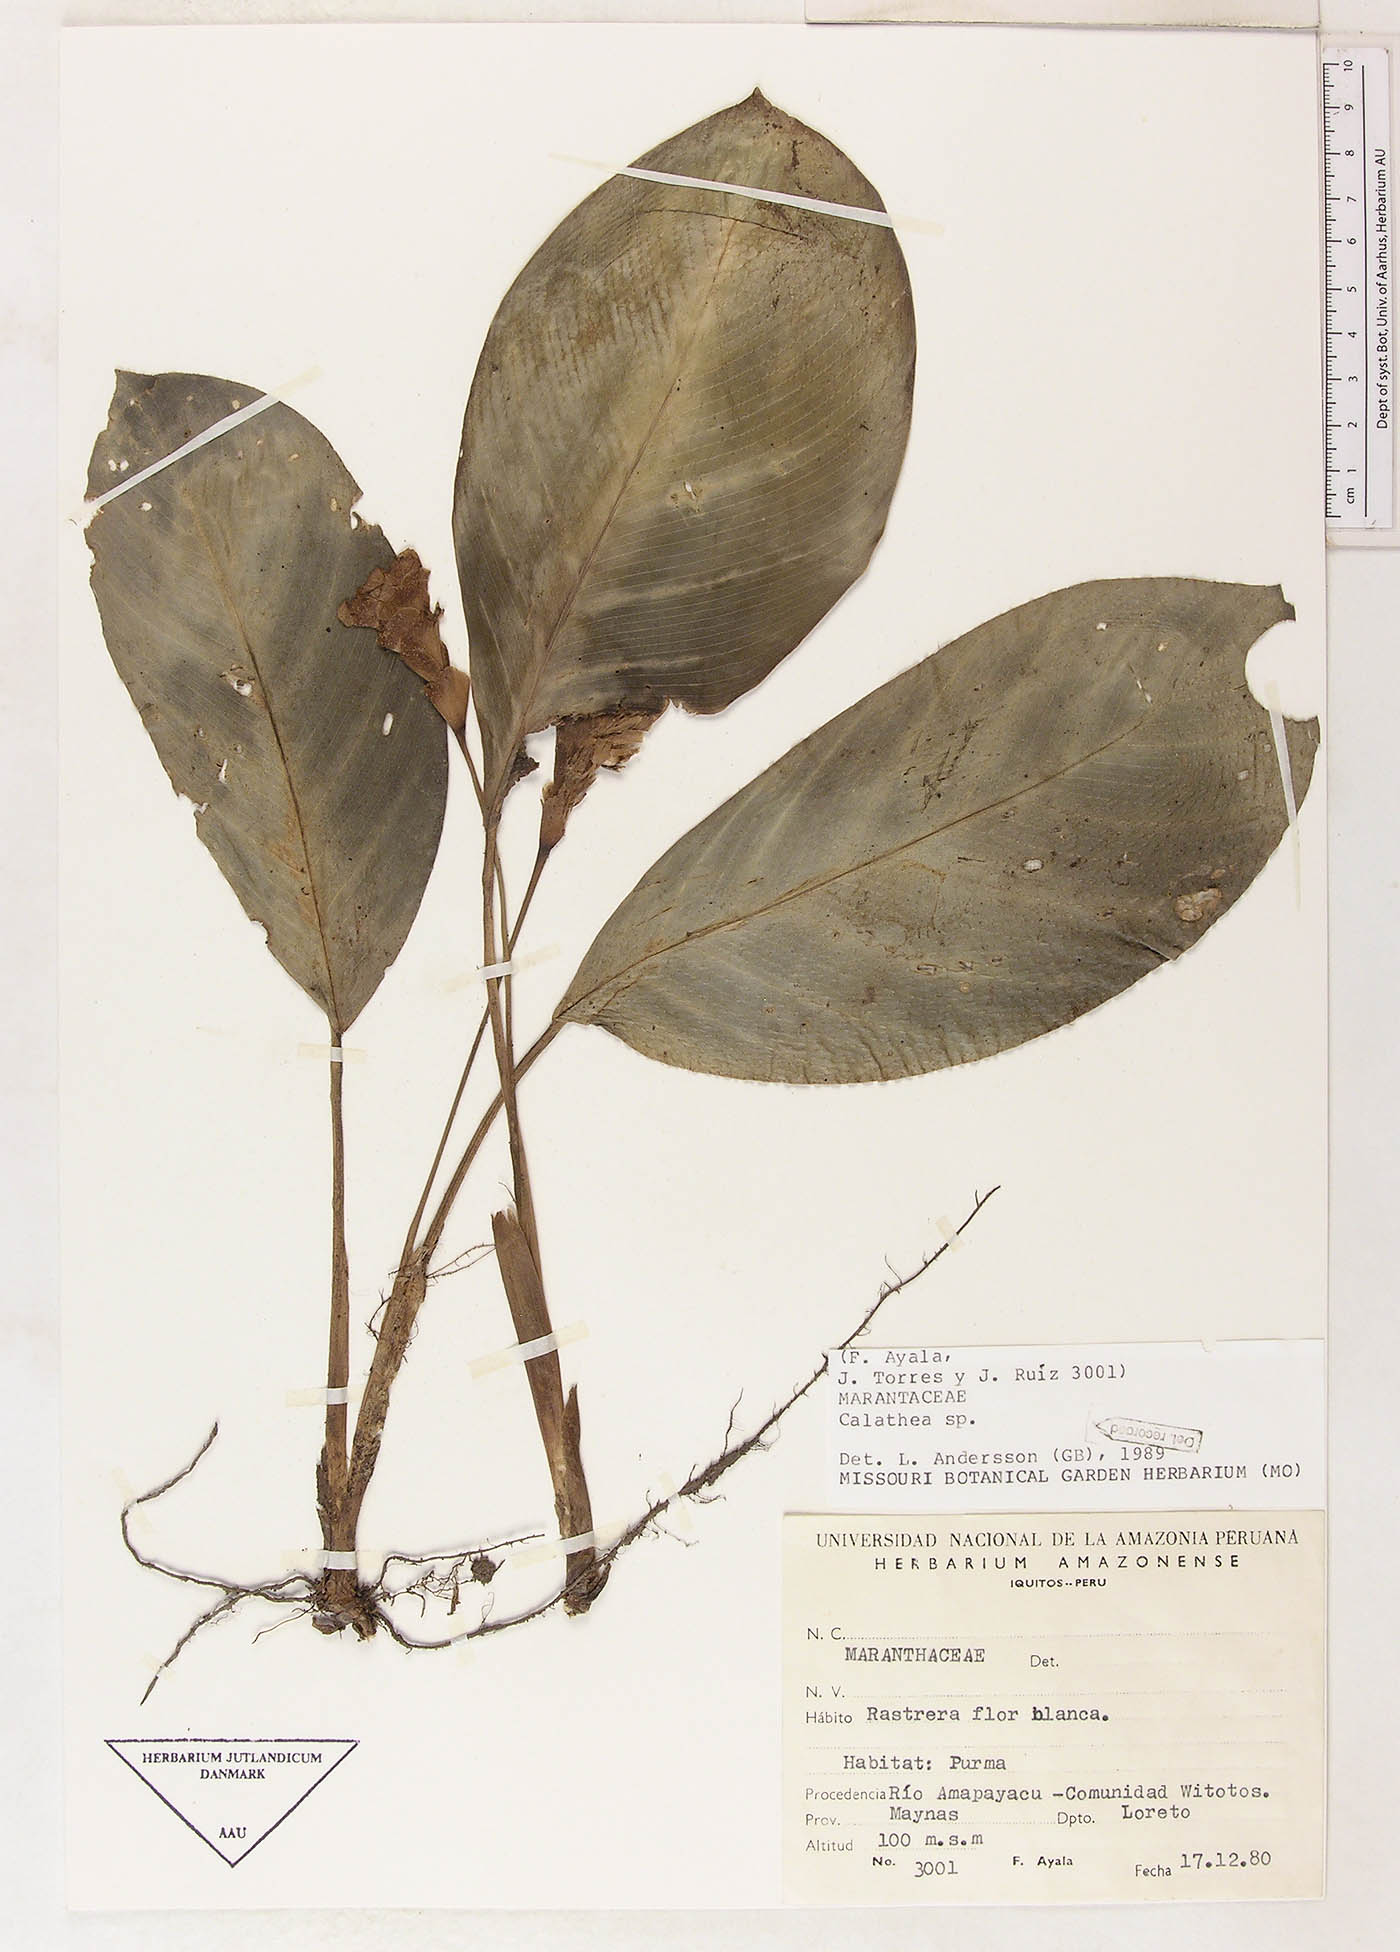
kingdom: Plantae
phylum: Tracheophyta
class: Magnoliopsida
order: Laurales
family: Lauraceae
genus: Goeppertia
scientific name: Goeppertia
